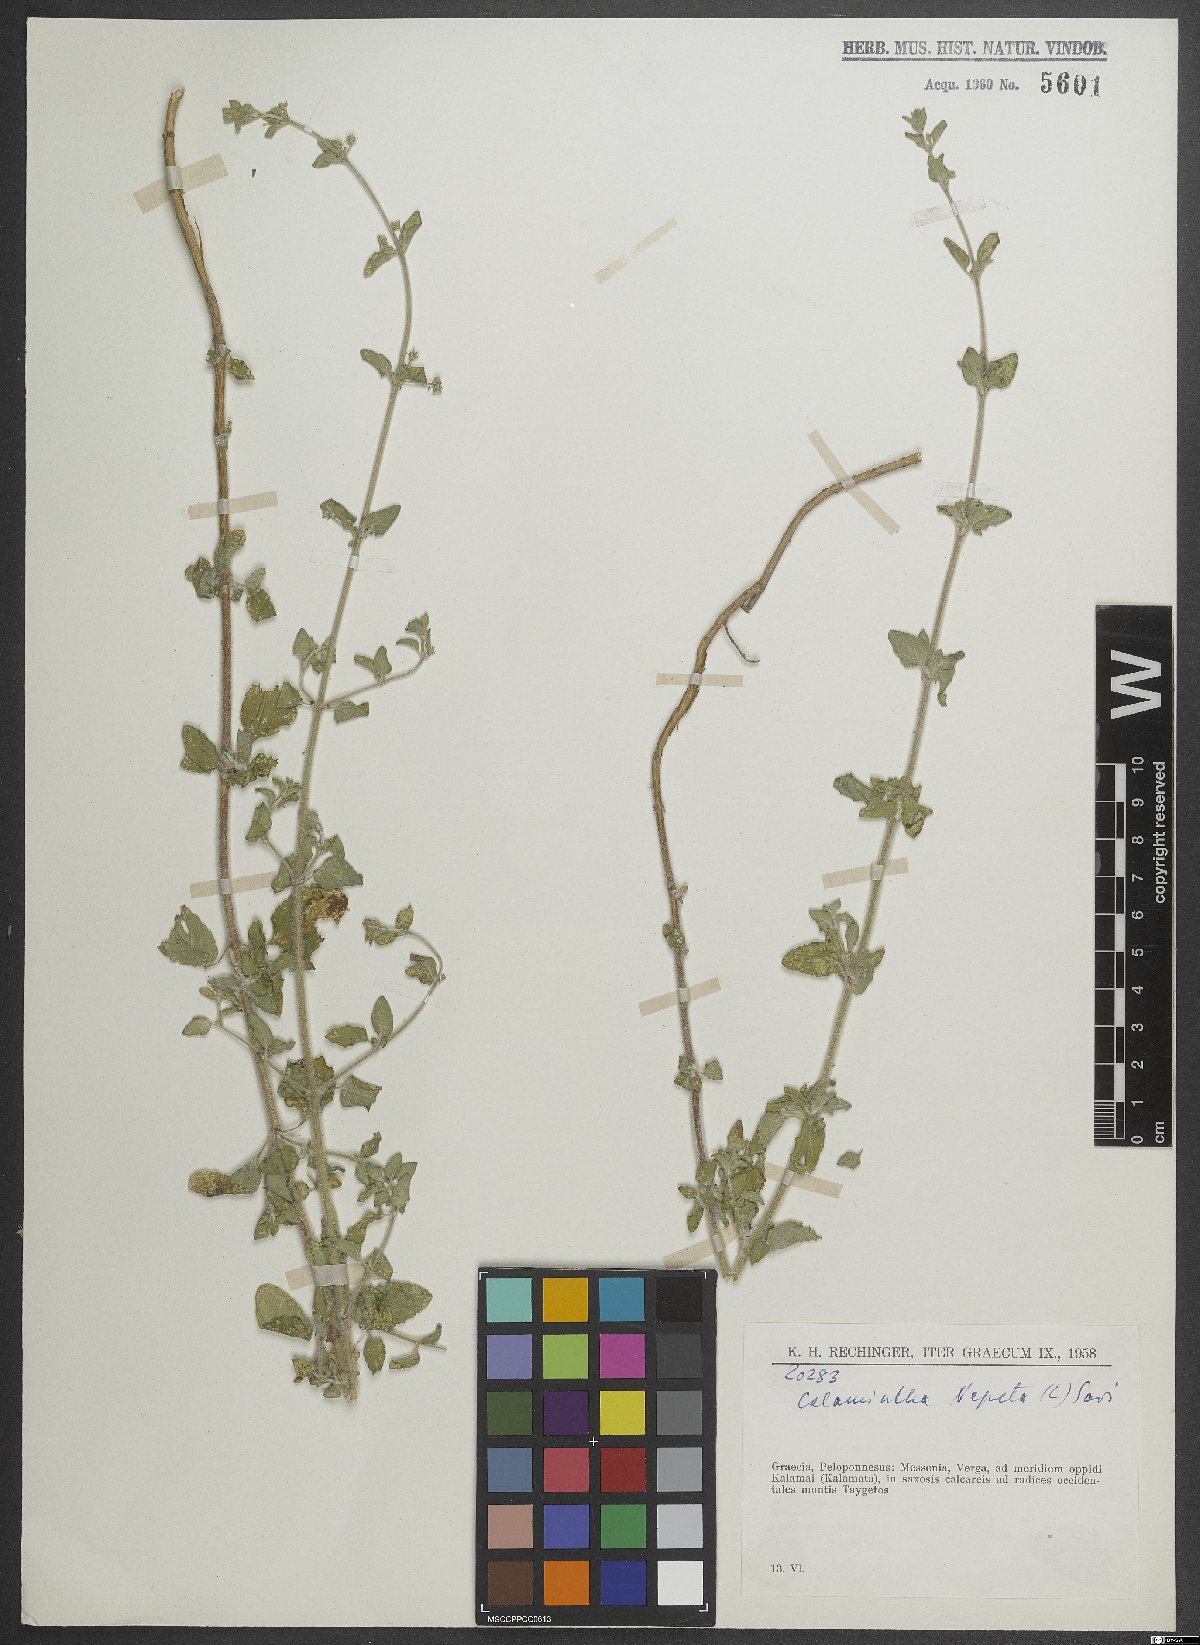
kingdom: Plantae
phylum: Tracheophyta
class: Magnoliopsida
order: Lamiales
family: Lamiaceae
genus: Clinopodium
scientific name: Clinopodium nepeta
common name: Lesser calamint
